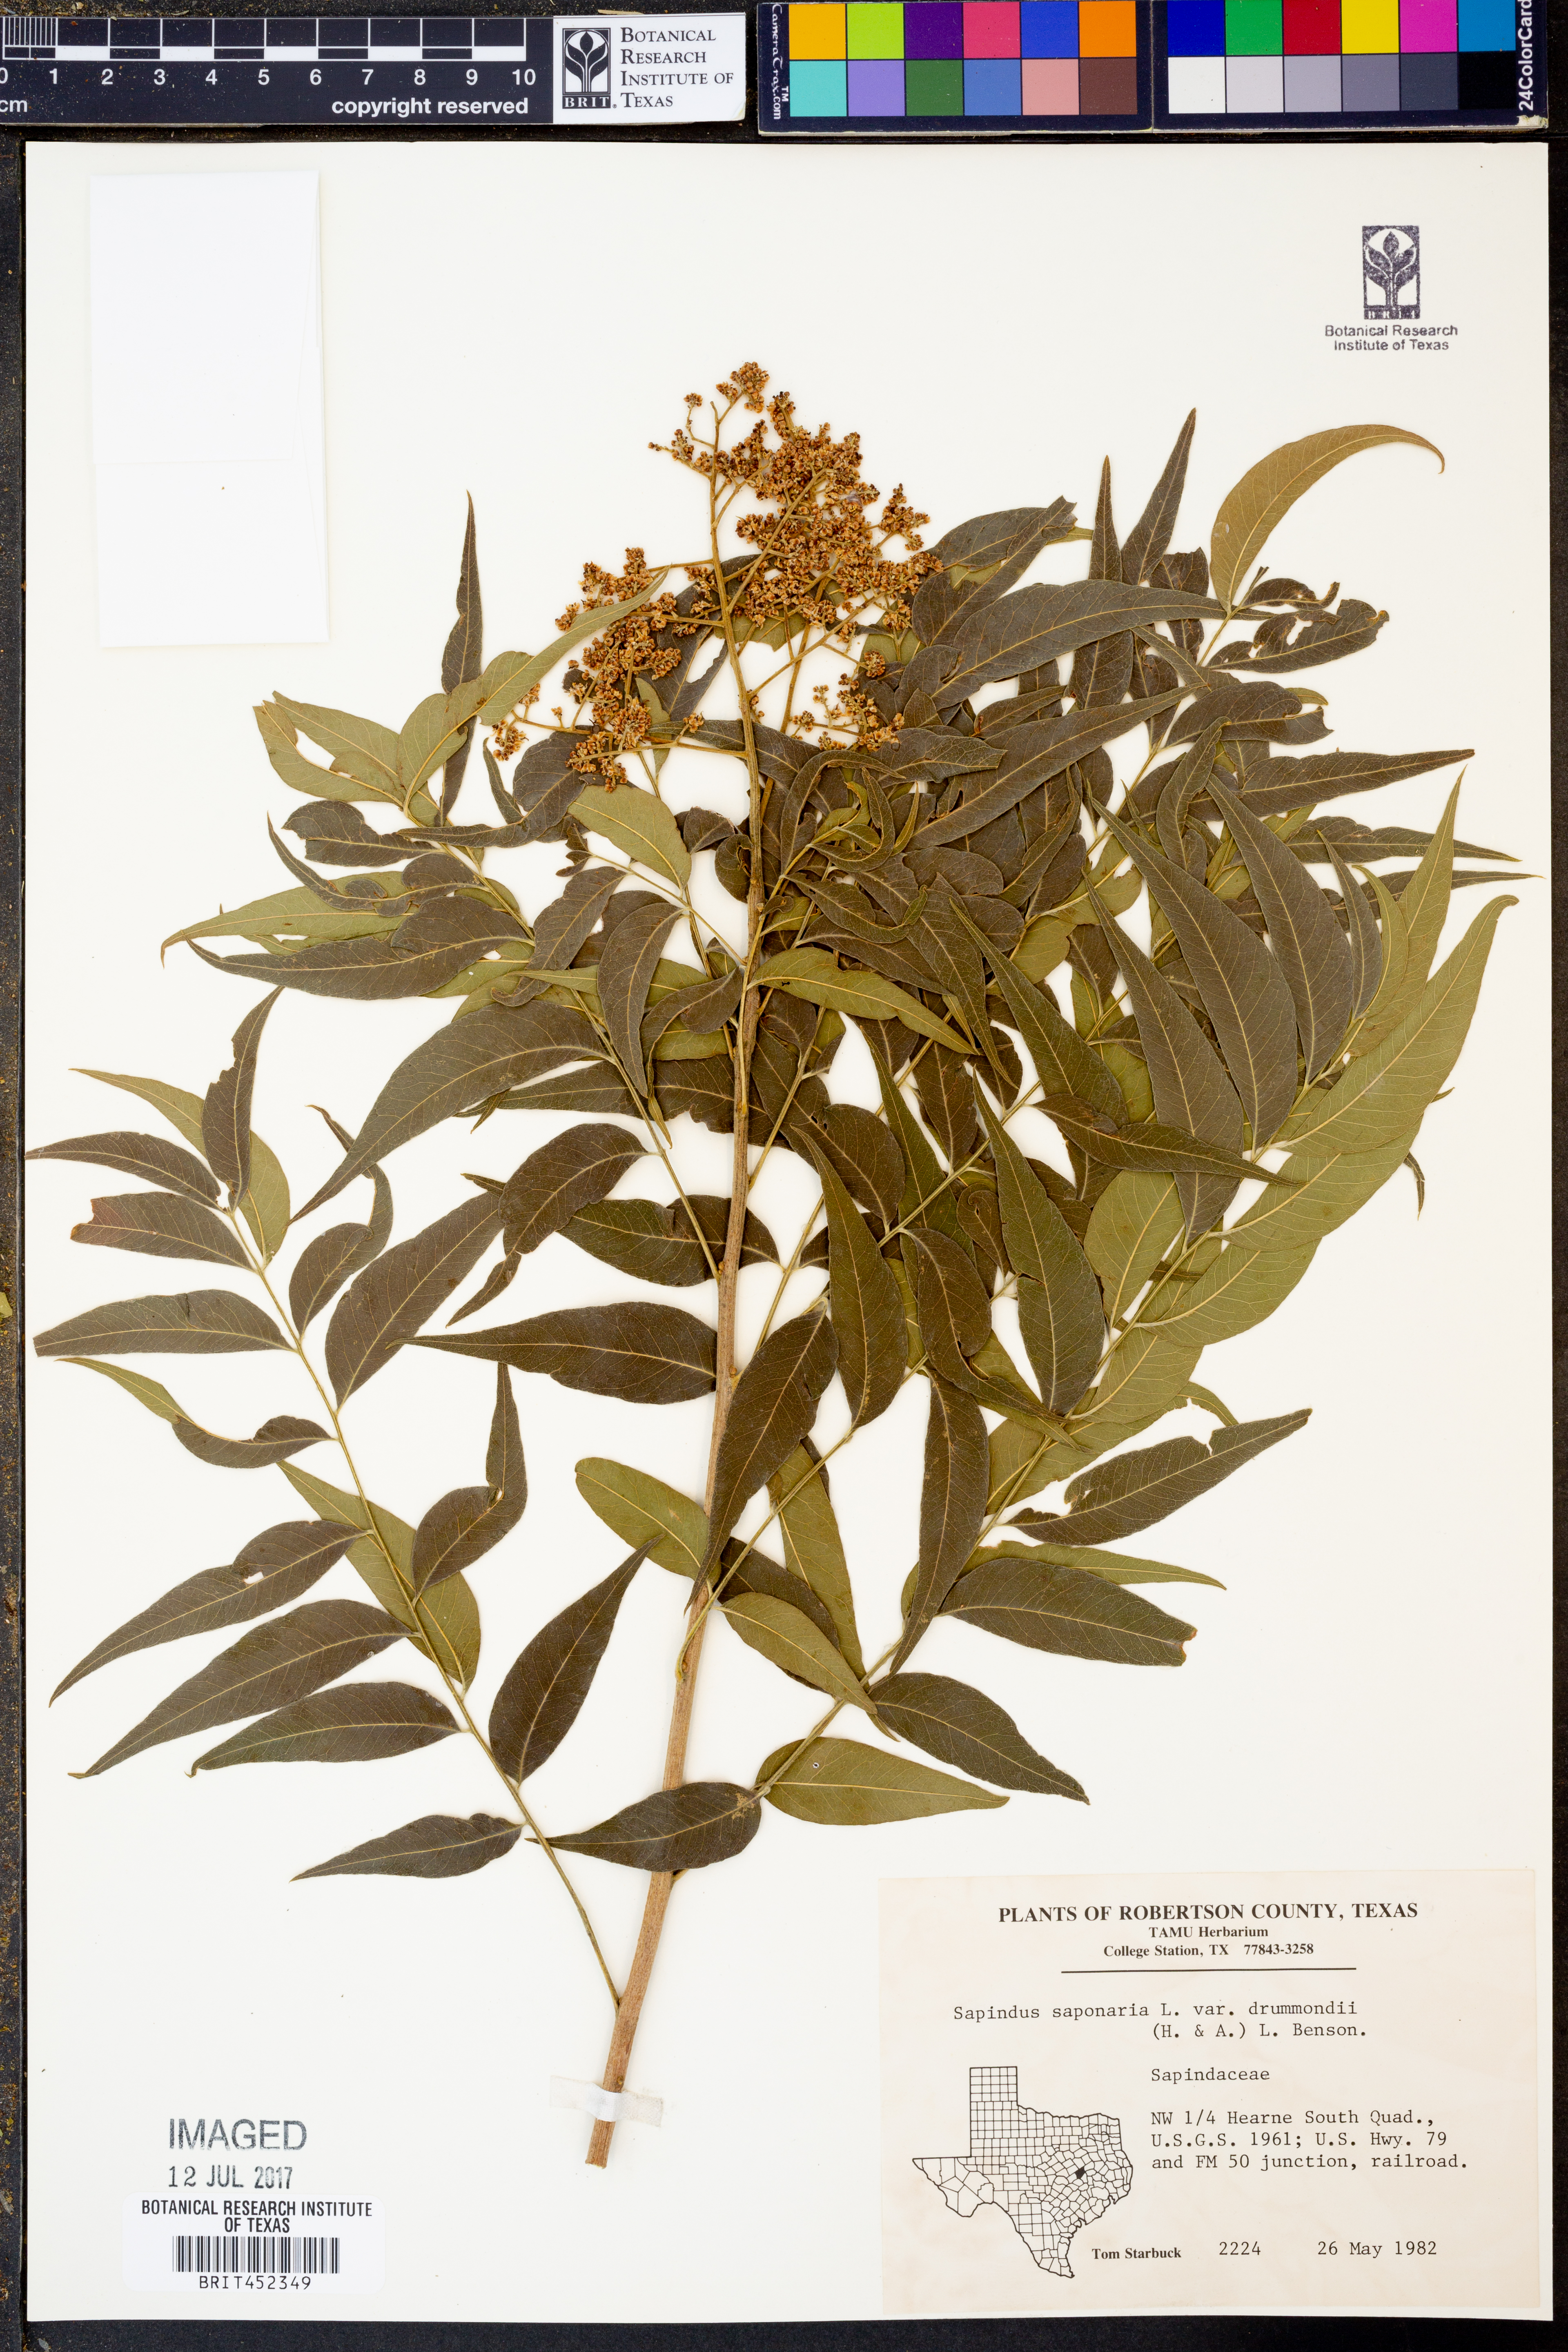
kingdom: Plantae
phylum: Tracheophyta
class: Magnoliopsida
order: Sapindales
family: Sapindaceae
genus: Sapindus
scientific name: Sapindus drummondii
